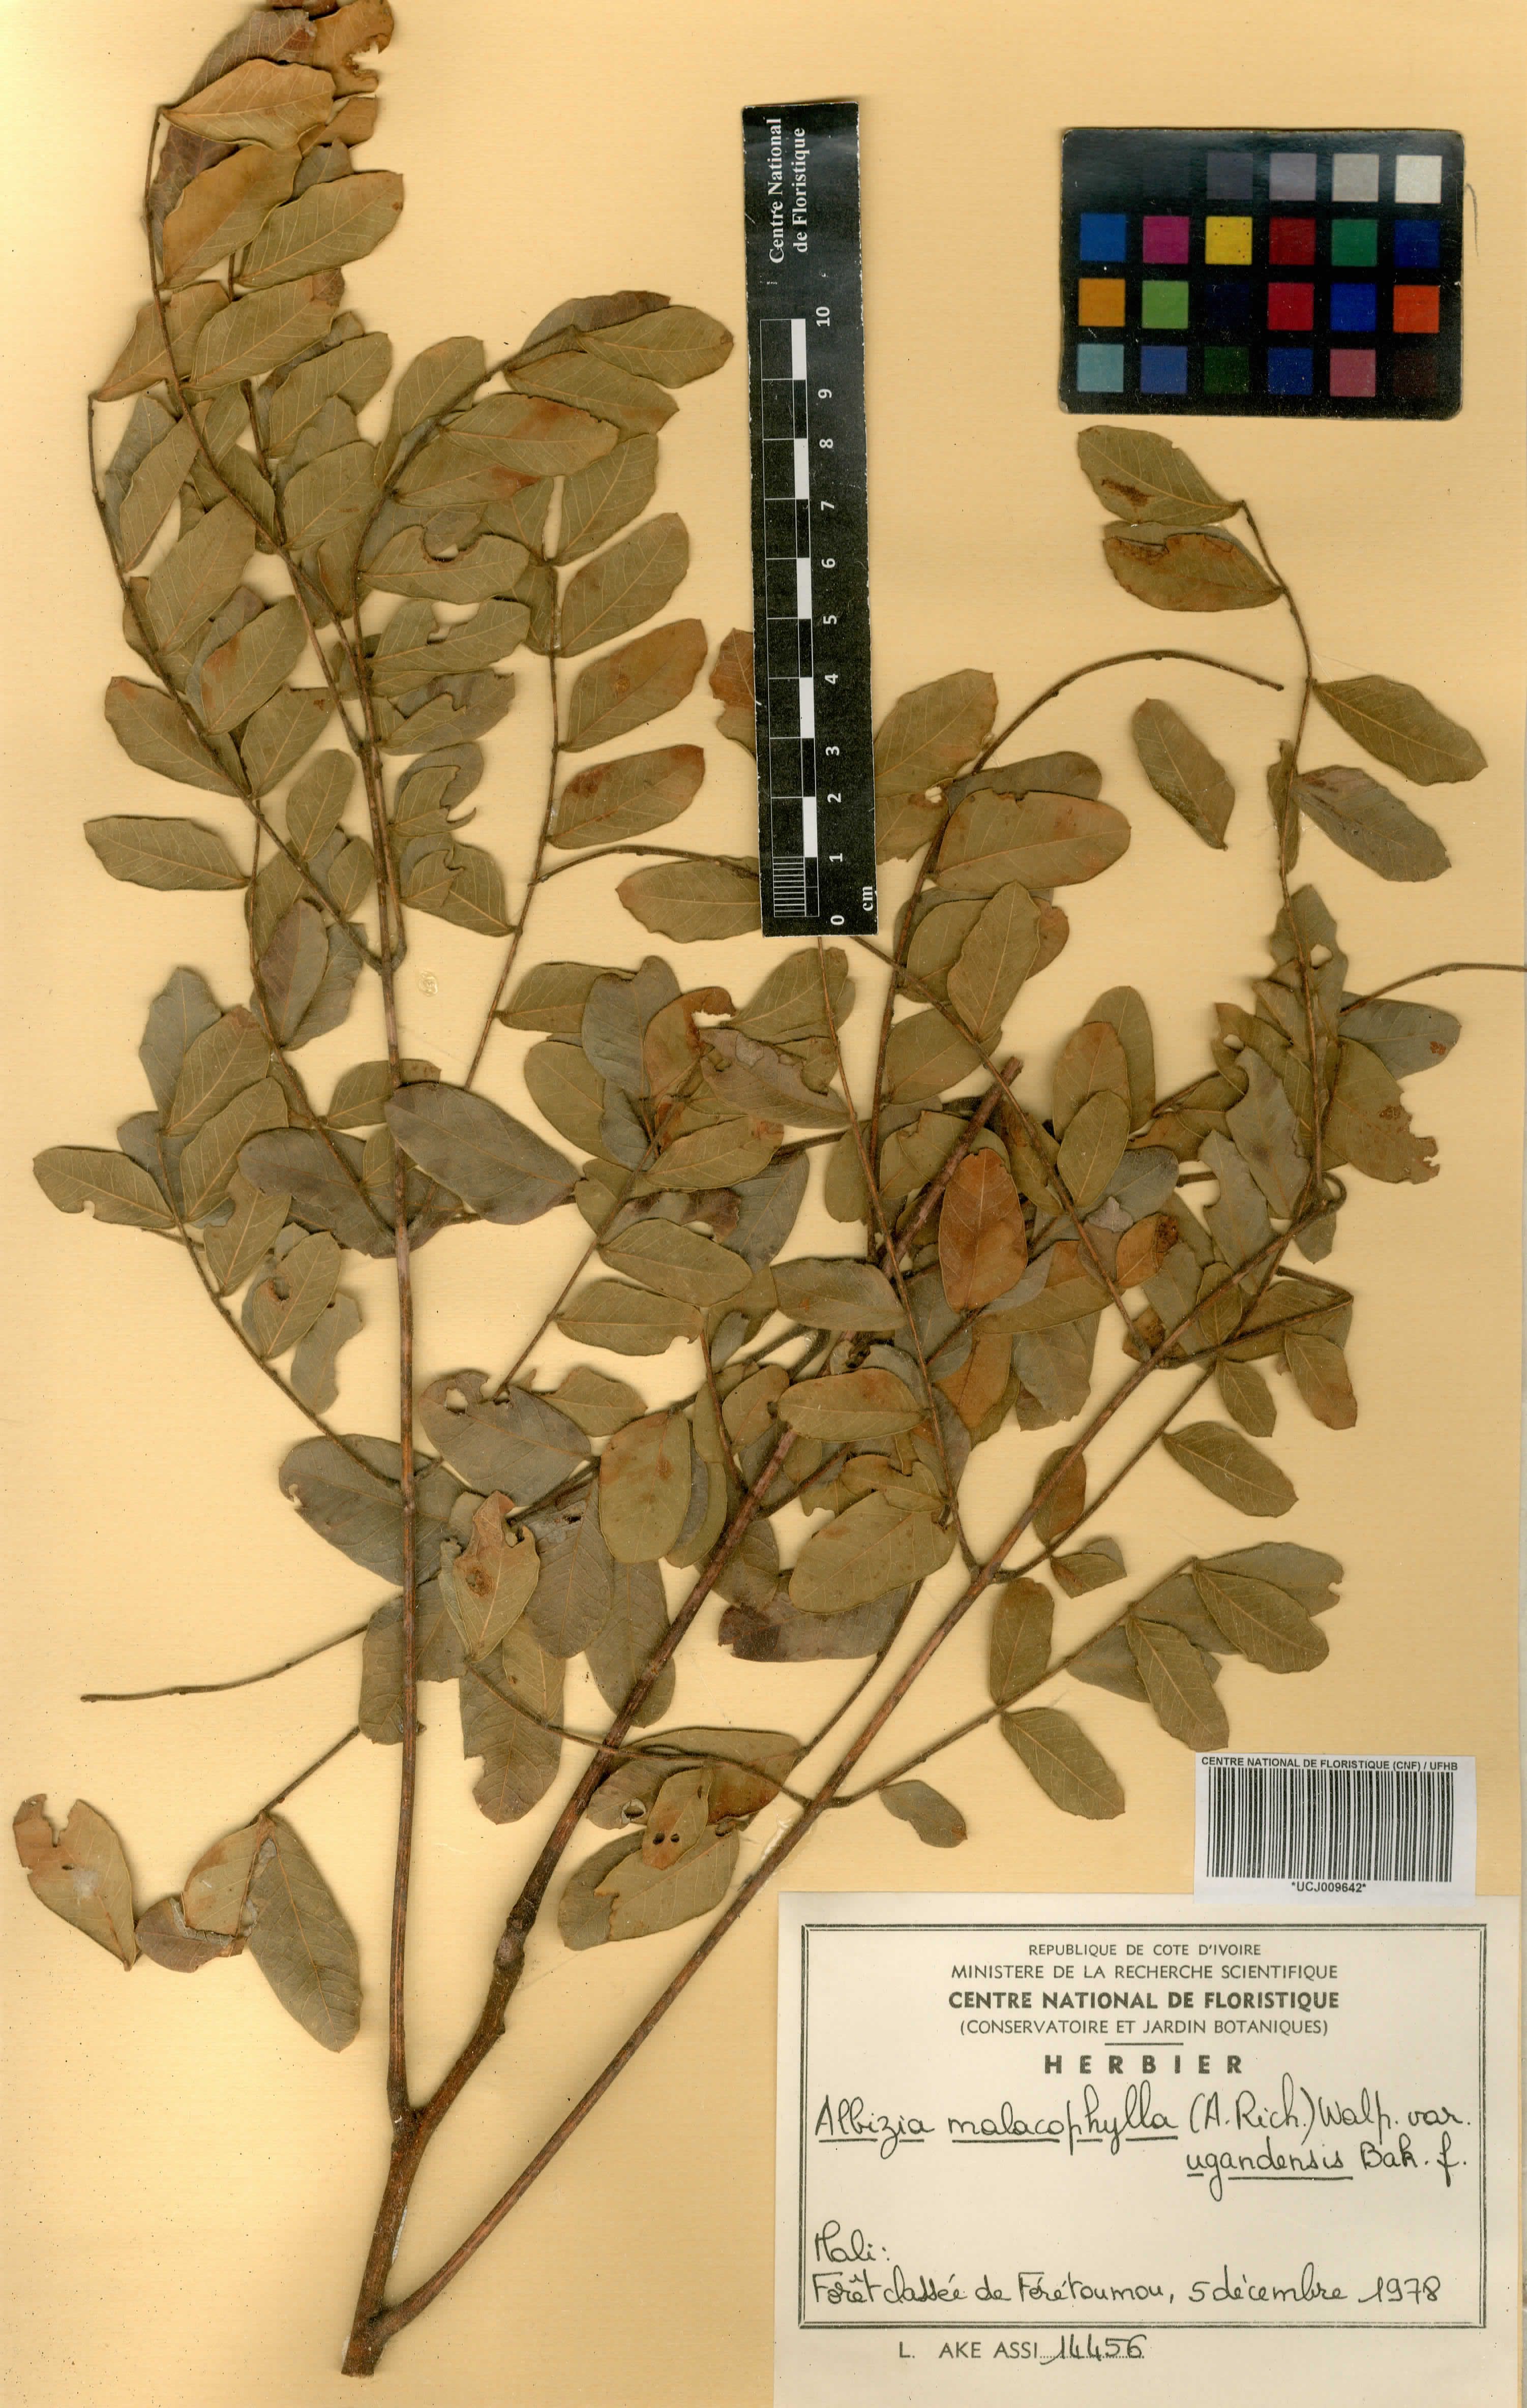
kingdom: Plantae
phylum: Tracheophyta
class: Magnoliopsida
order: Fabales
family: Fabaceae
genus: Albizia
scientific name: Albizia malacophylla
